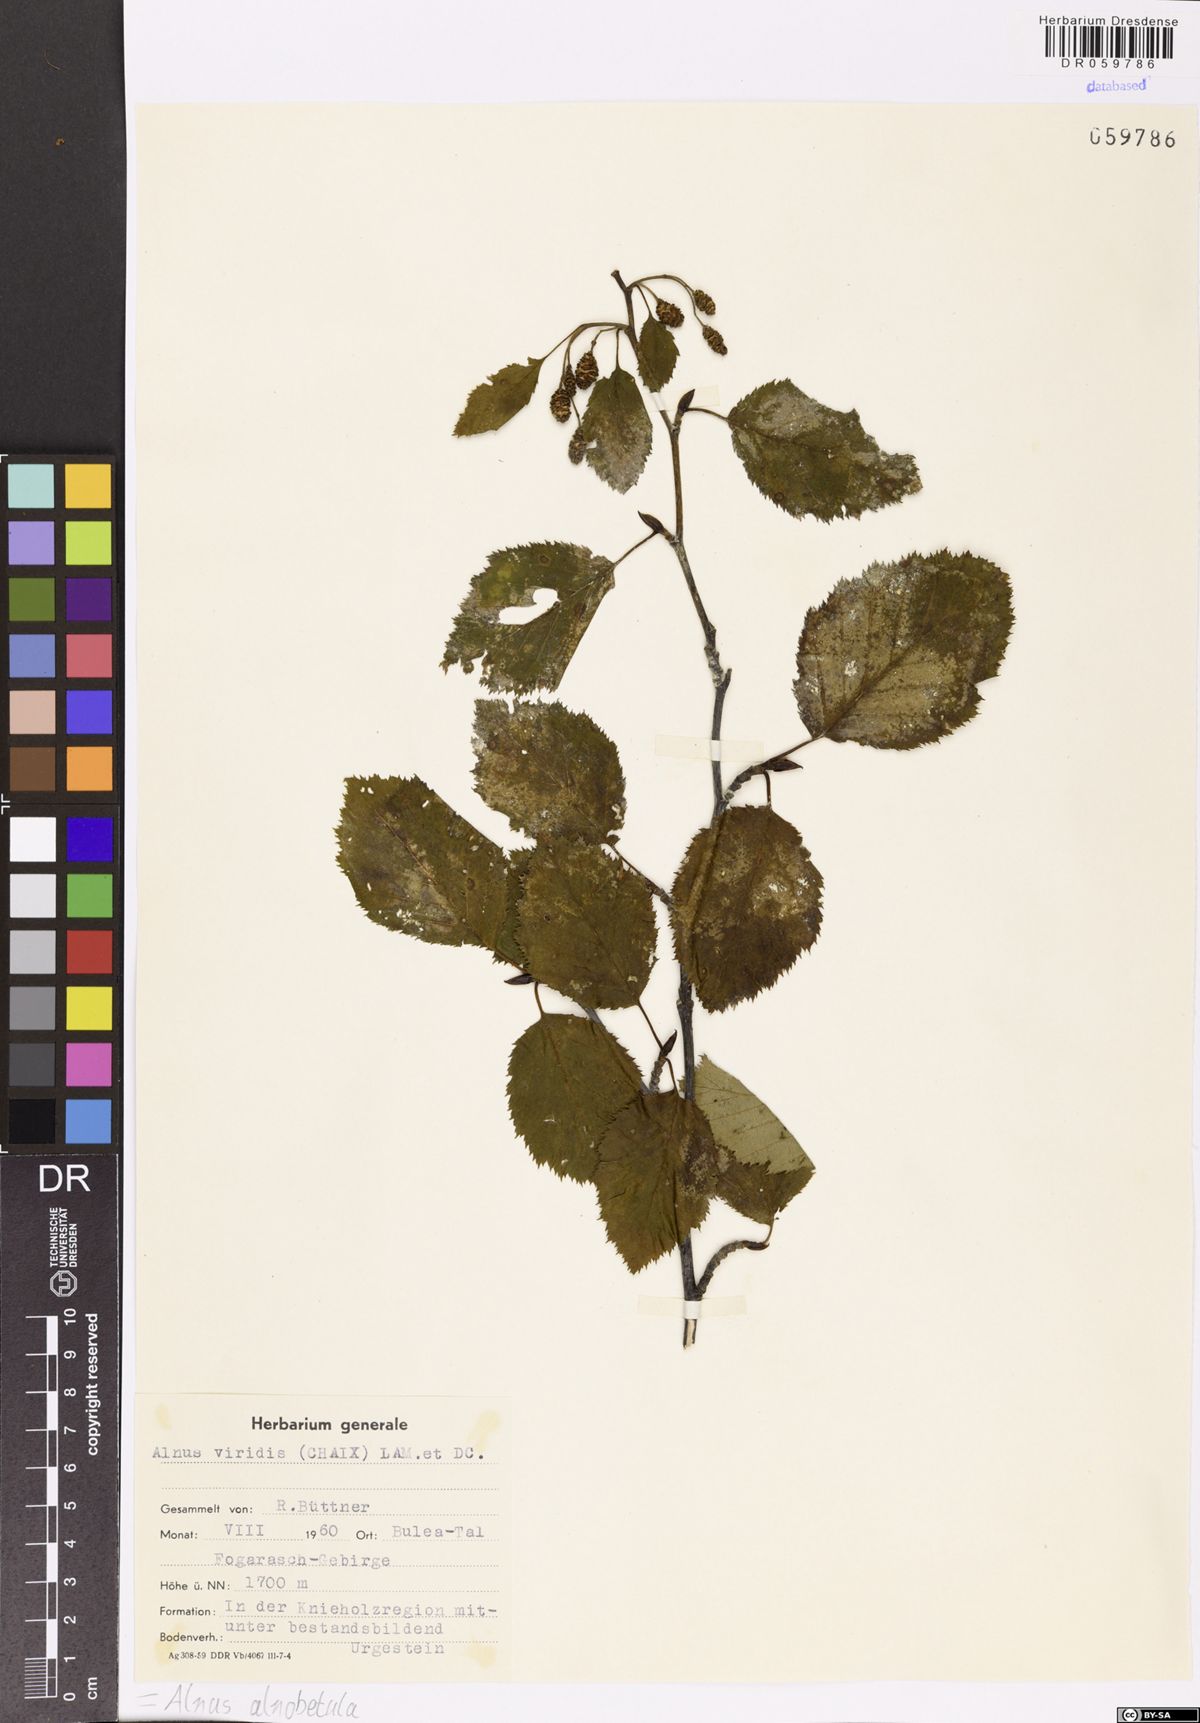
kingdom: Plantae
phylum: Tracheophyta
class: Magnoliopsida
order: Fagales
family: Betulaceae
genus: Alnus
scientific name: Alnus alnobetula
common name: Green alder
